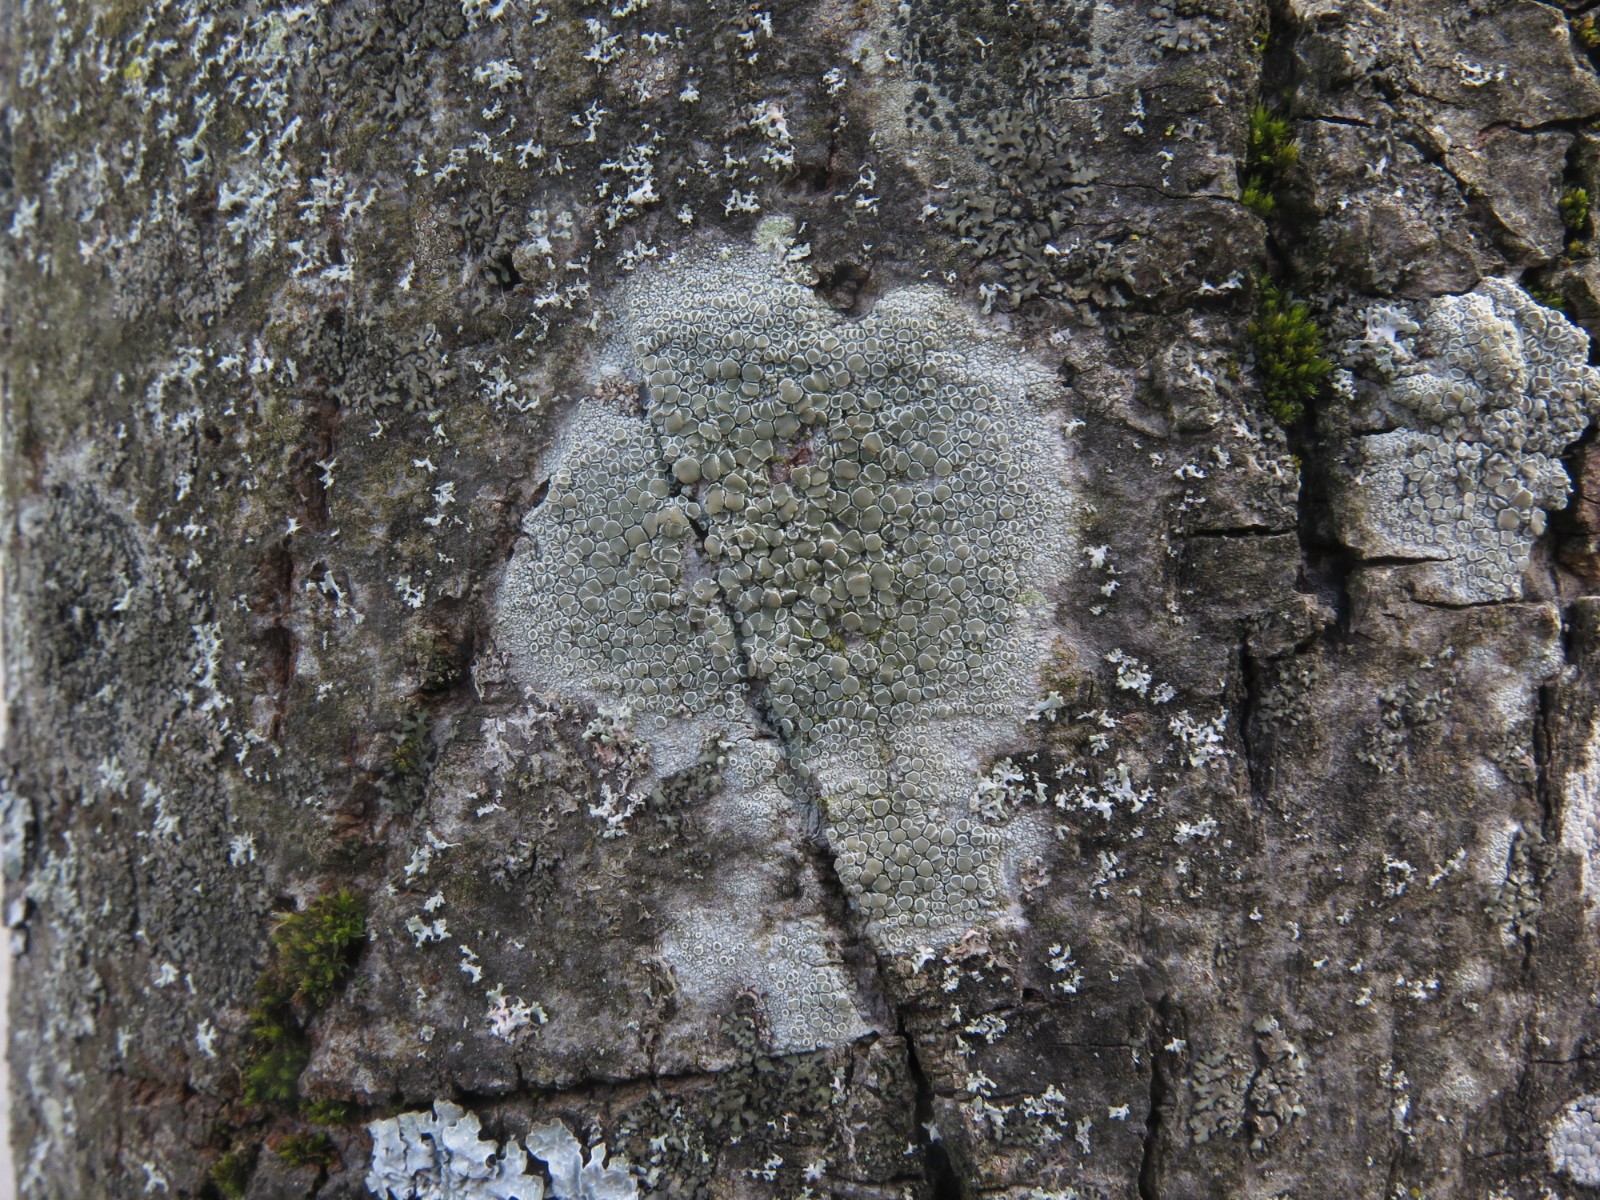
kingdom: Fungi
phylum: Ascomycota
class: Lecanoromycetes
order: Lecanorales
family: Lecanoraceae
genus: Lecanora
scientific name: Lecanora chlarotera
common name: brun kantskivelav
